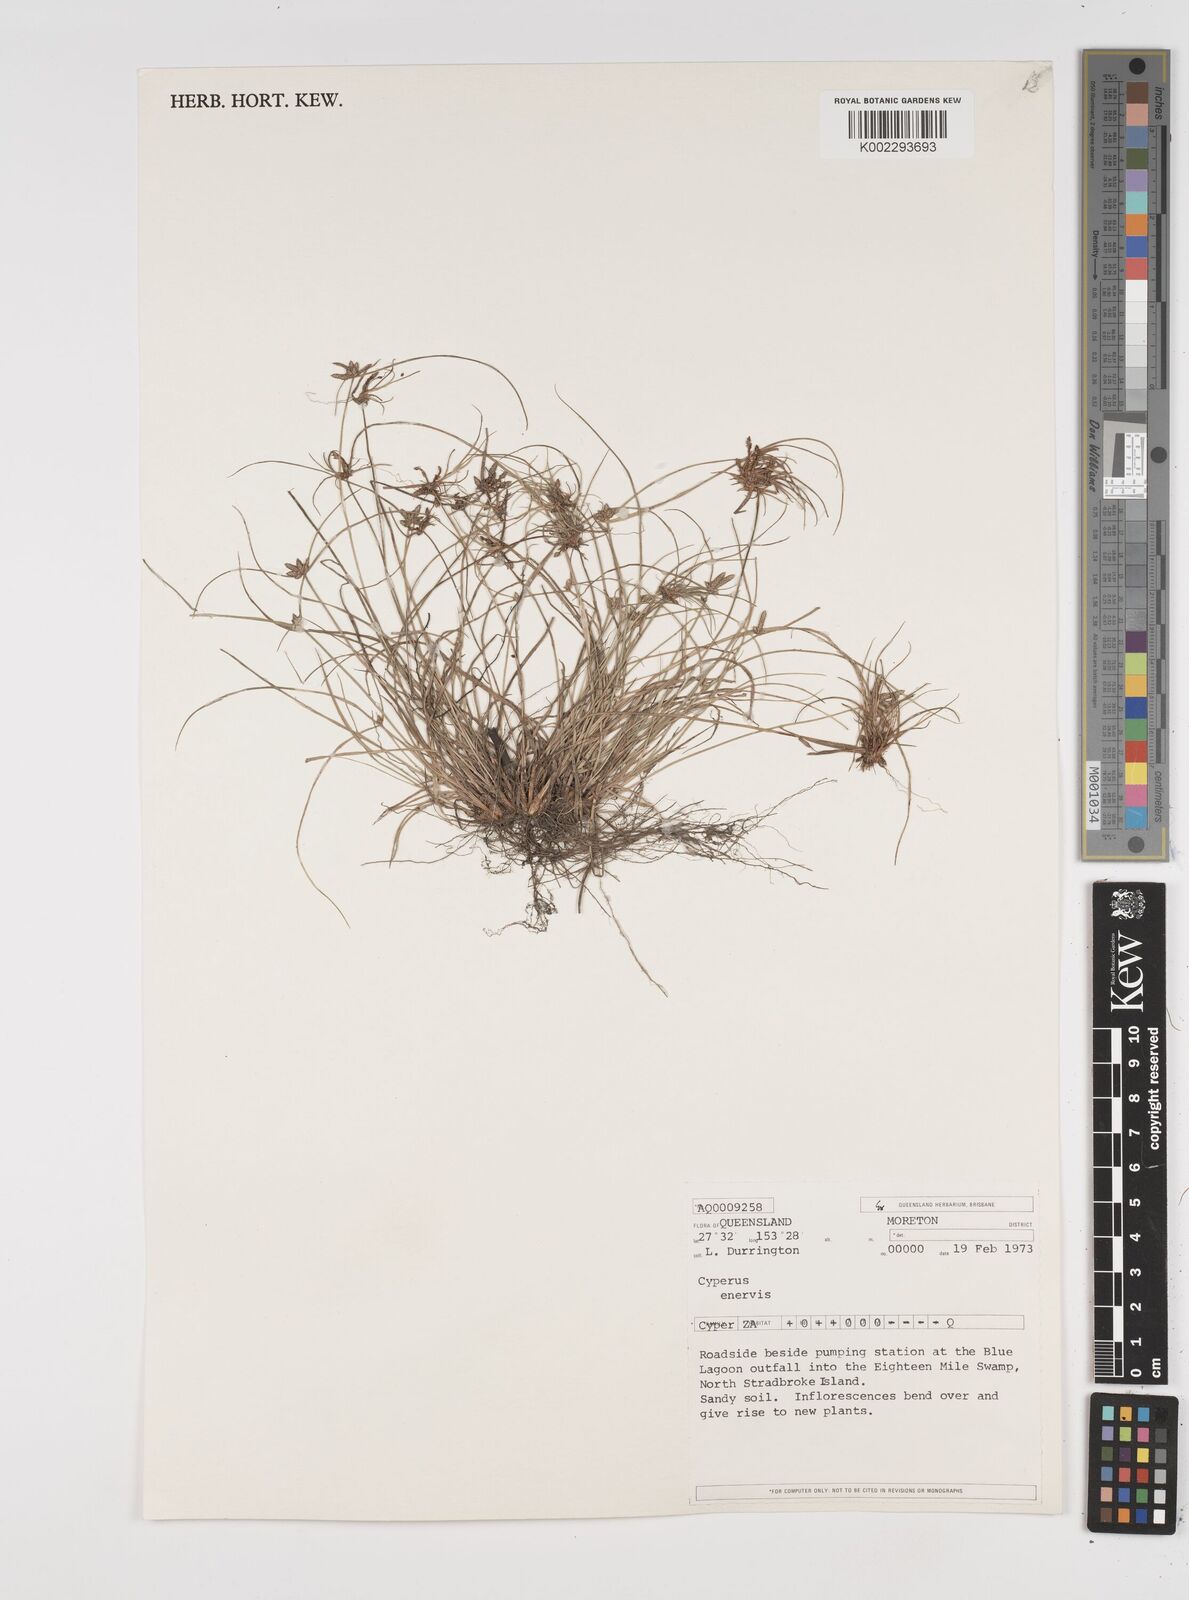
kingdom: Plantae
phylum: Tracheophyta
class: Liliopsida
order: Poales
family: Cyperaceae
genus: Cyperus
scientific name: Cyperus enervis
